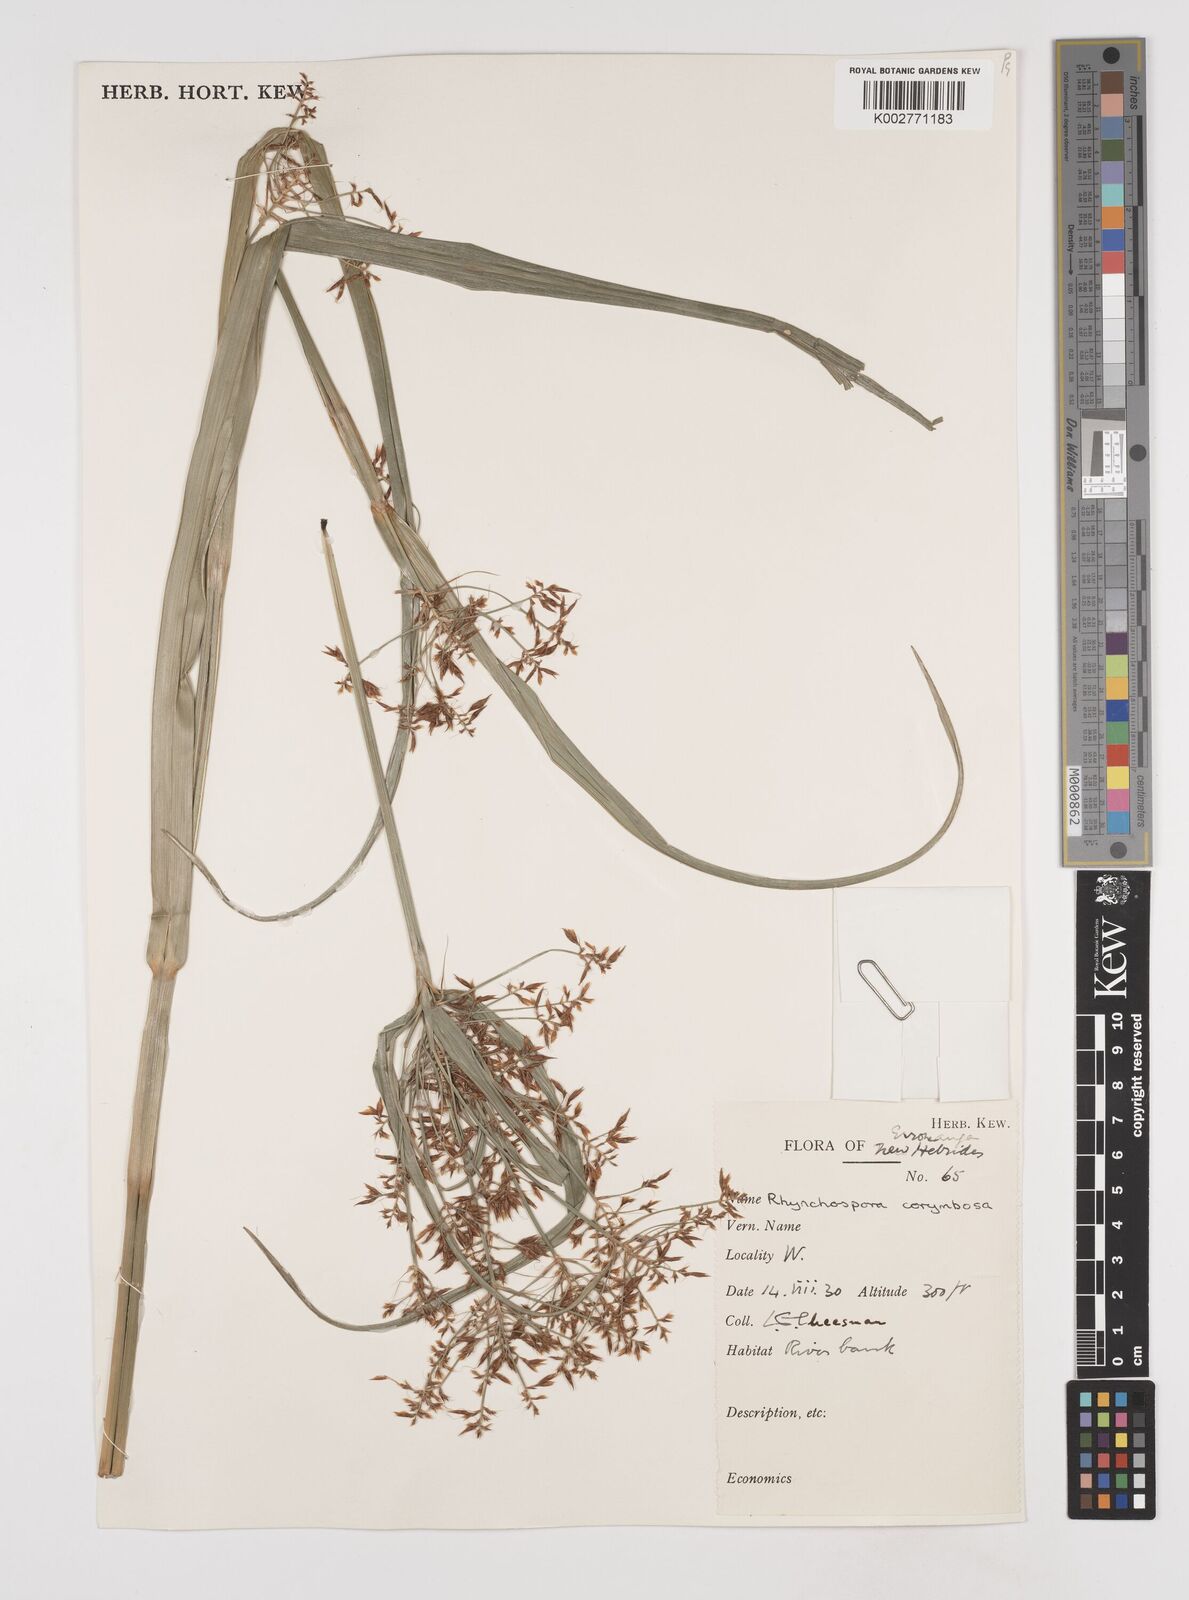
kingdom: Plantae
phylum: Tracheophyta
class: Liliopsida
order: Poales
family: Cyperaceae
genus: Rhynchospora
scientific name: Rhynchospora corymbosa
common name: Golden beak sedge
